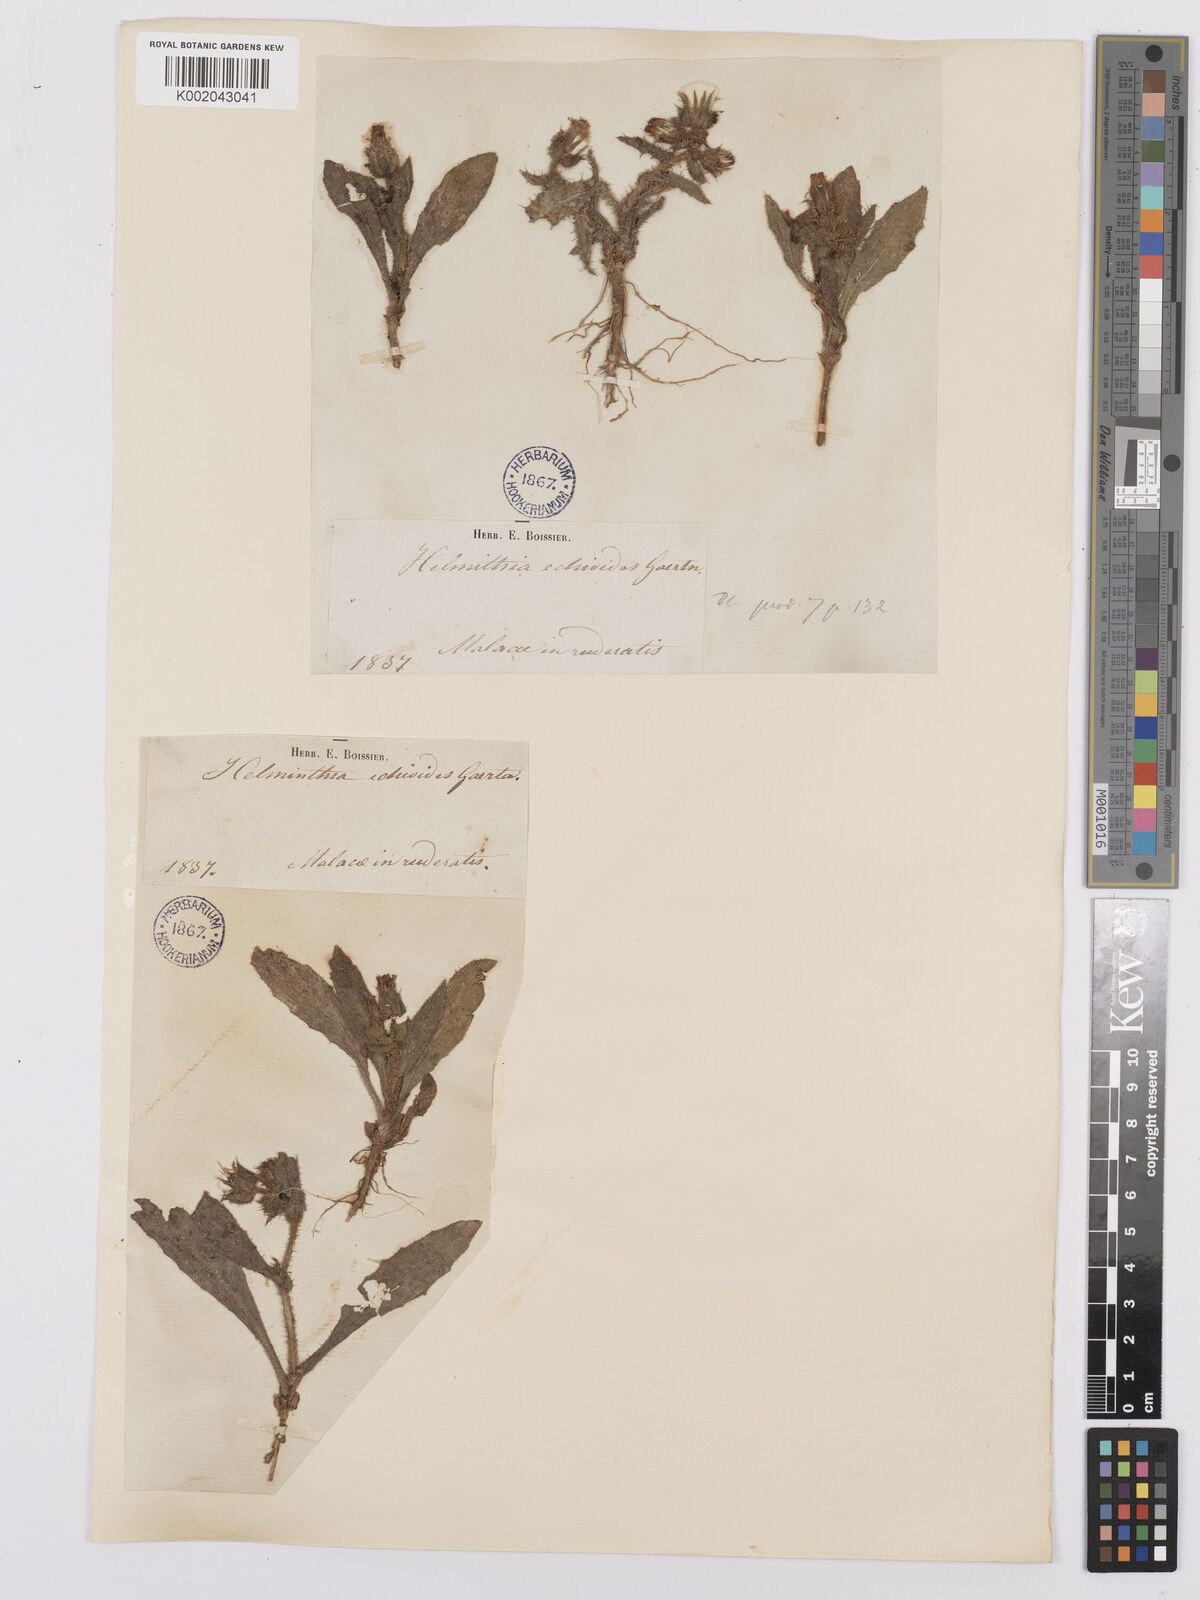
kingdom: Plantae
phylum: Tracheophyta
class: Magnoliopsida
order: Asterales
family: Asteraceae
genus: Helminthotheca
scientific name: Helminthotheca echioides
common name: Ox-tongue
